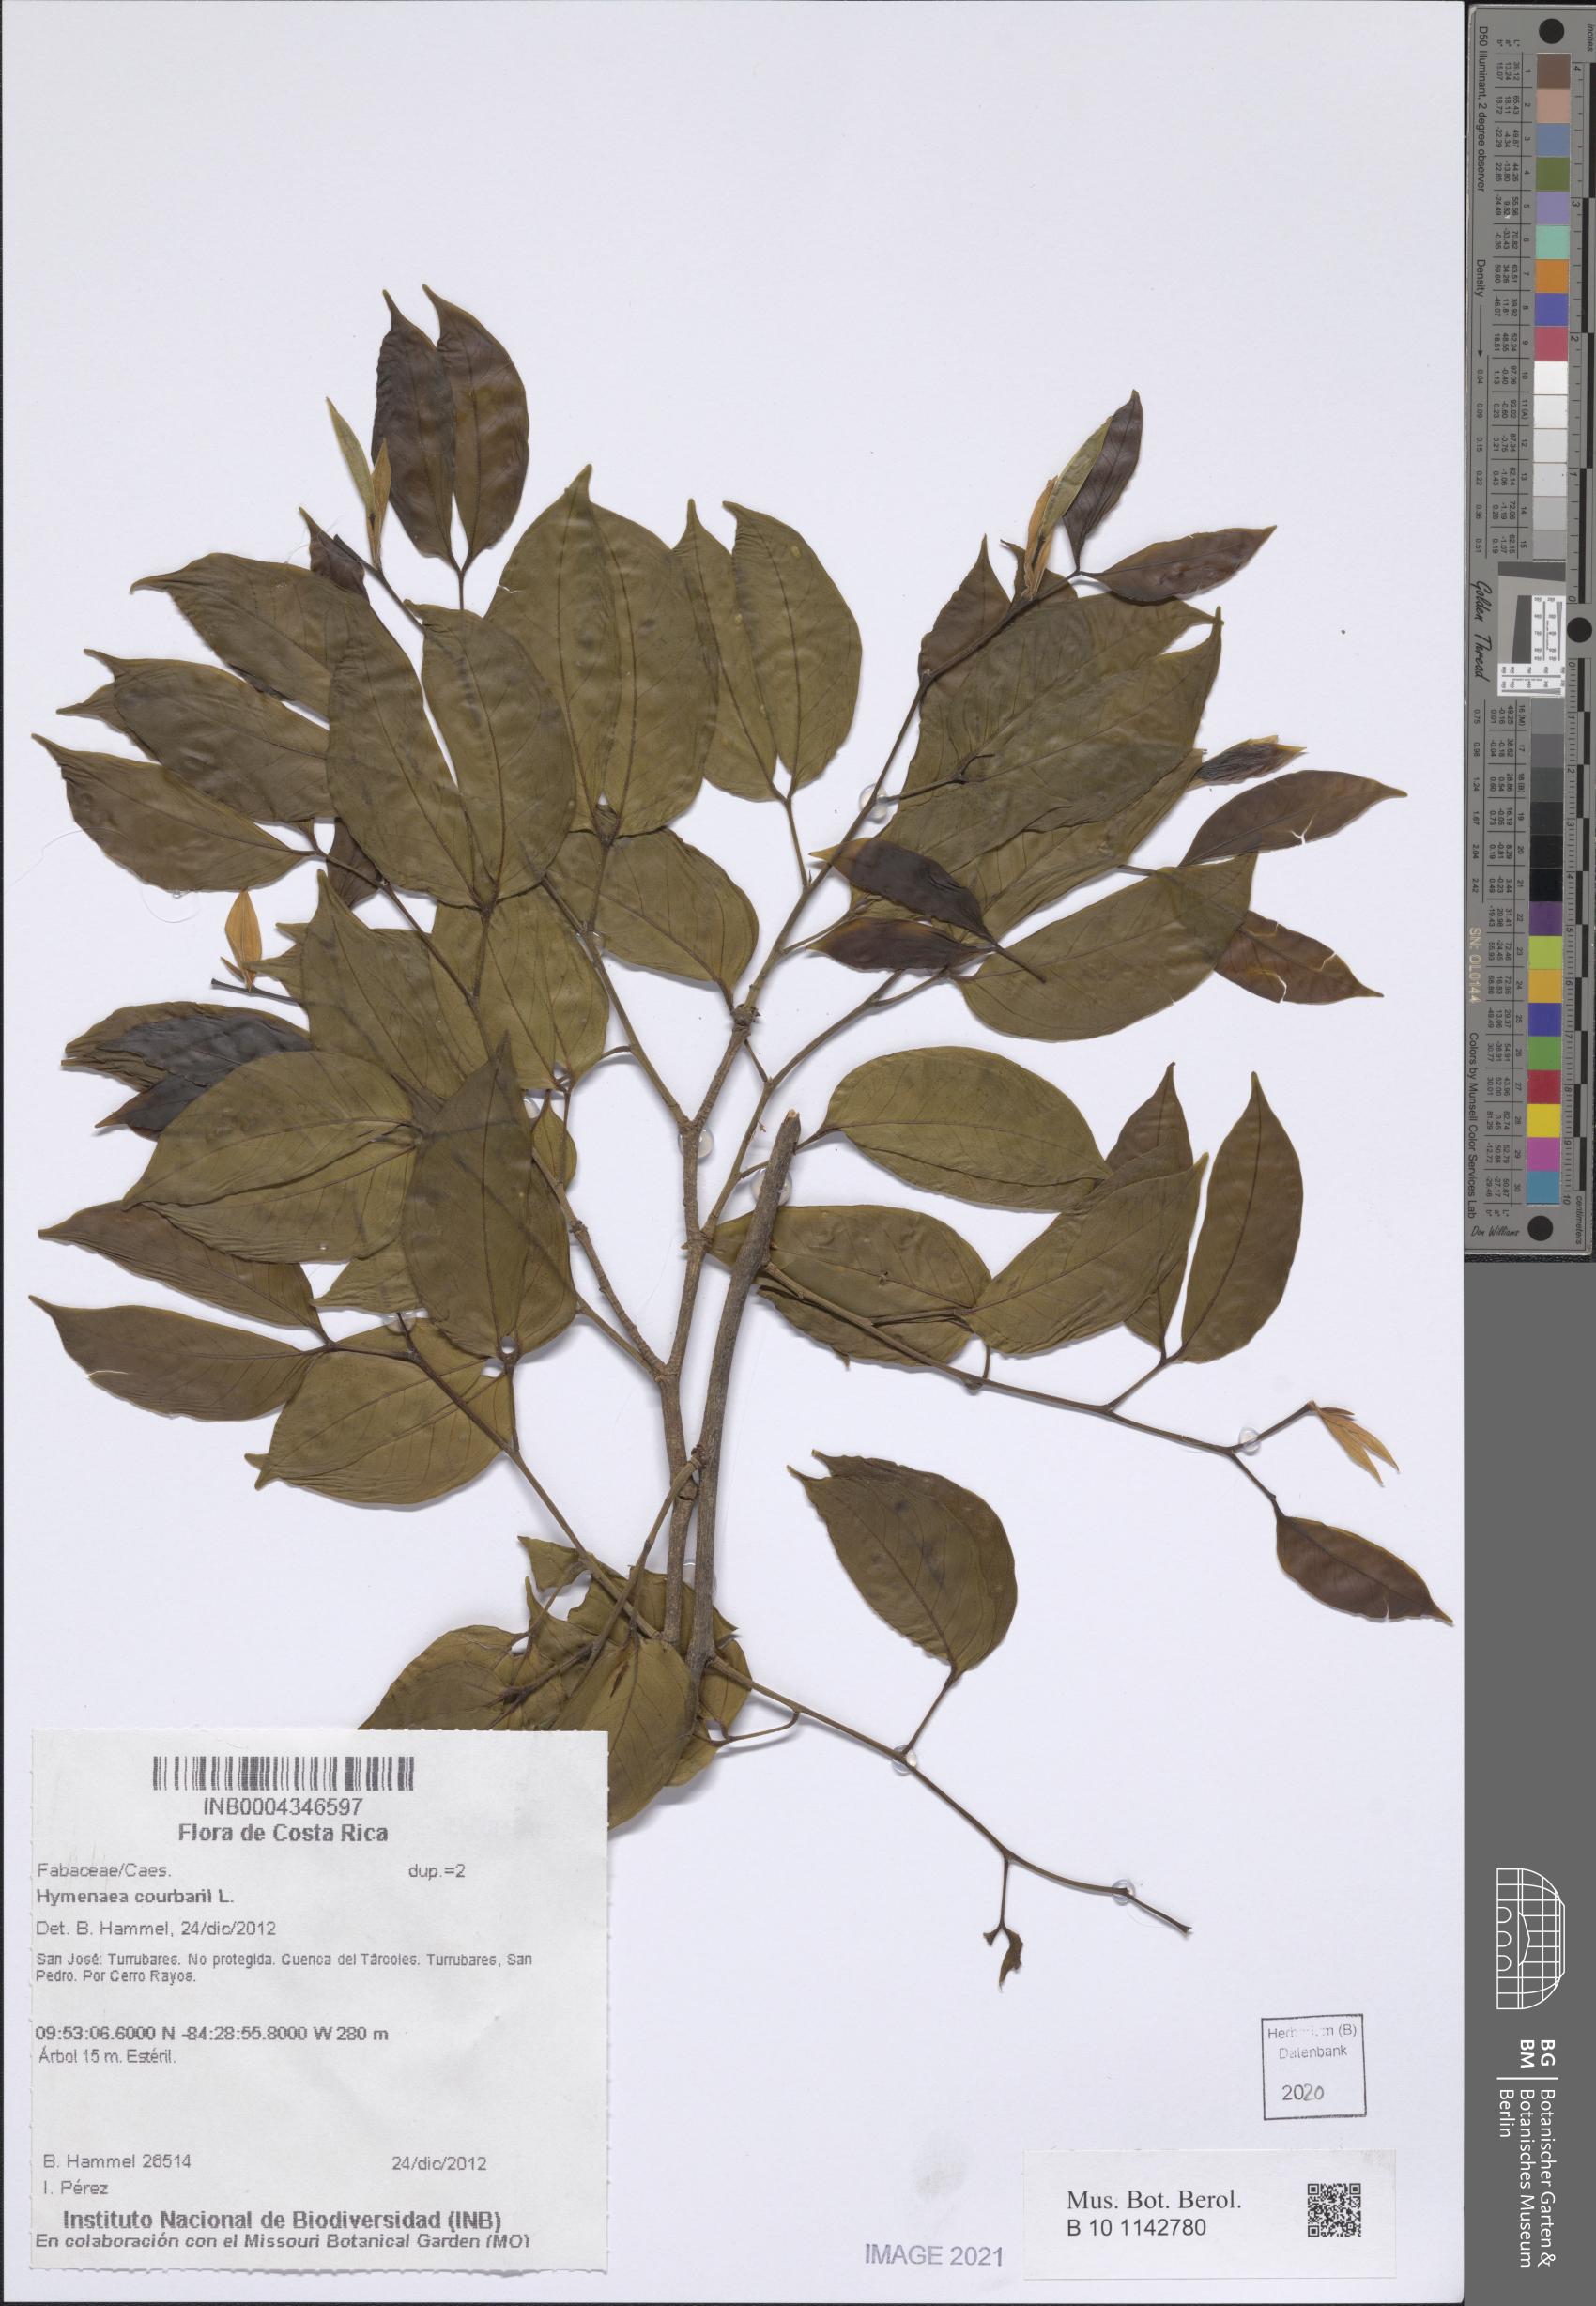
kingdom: Plantae
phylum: Tracheophyta
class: Magnoliopsida
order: Fabales
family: Fabaceae
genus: Hymenaea
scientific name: Hymenaea courbaril
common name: Brazilian copal
